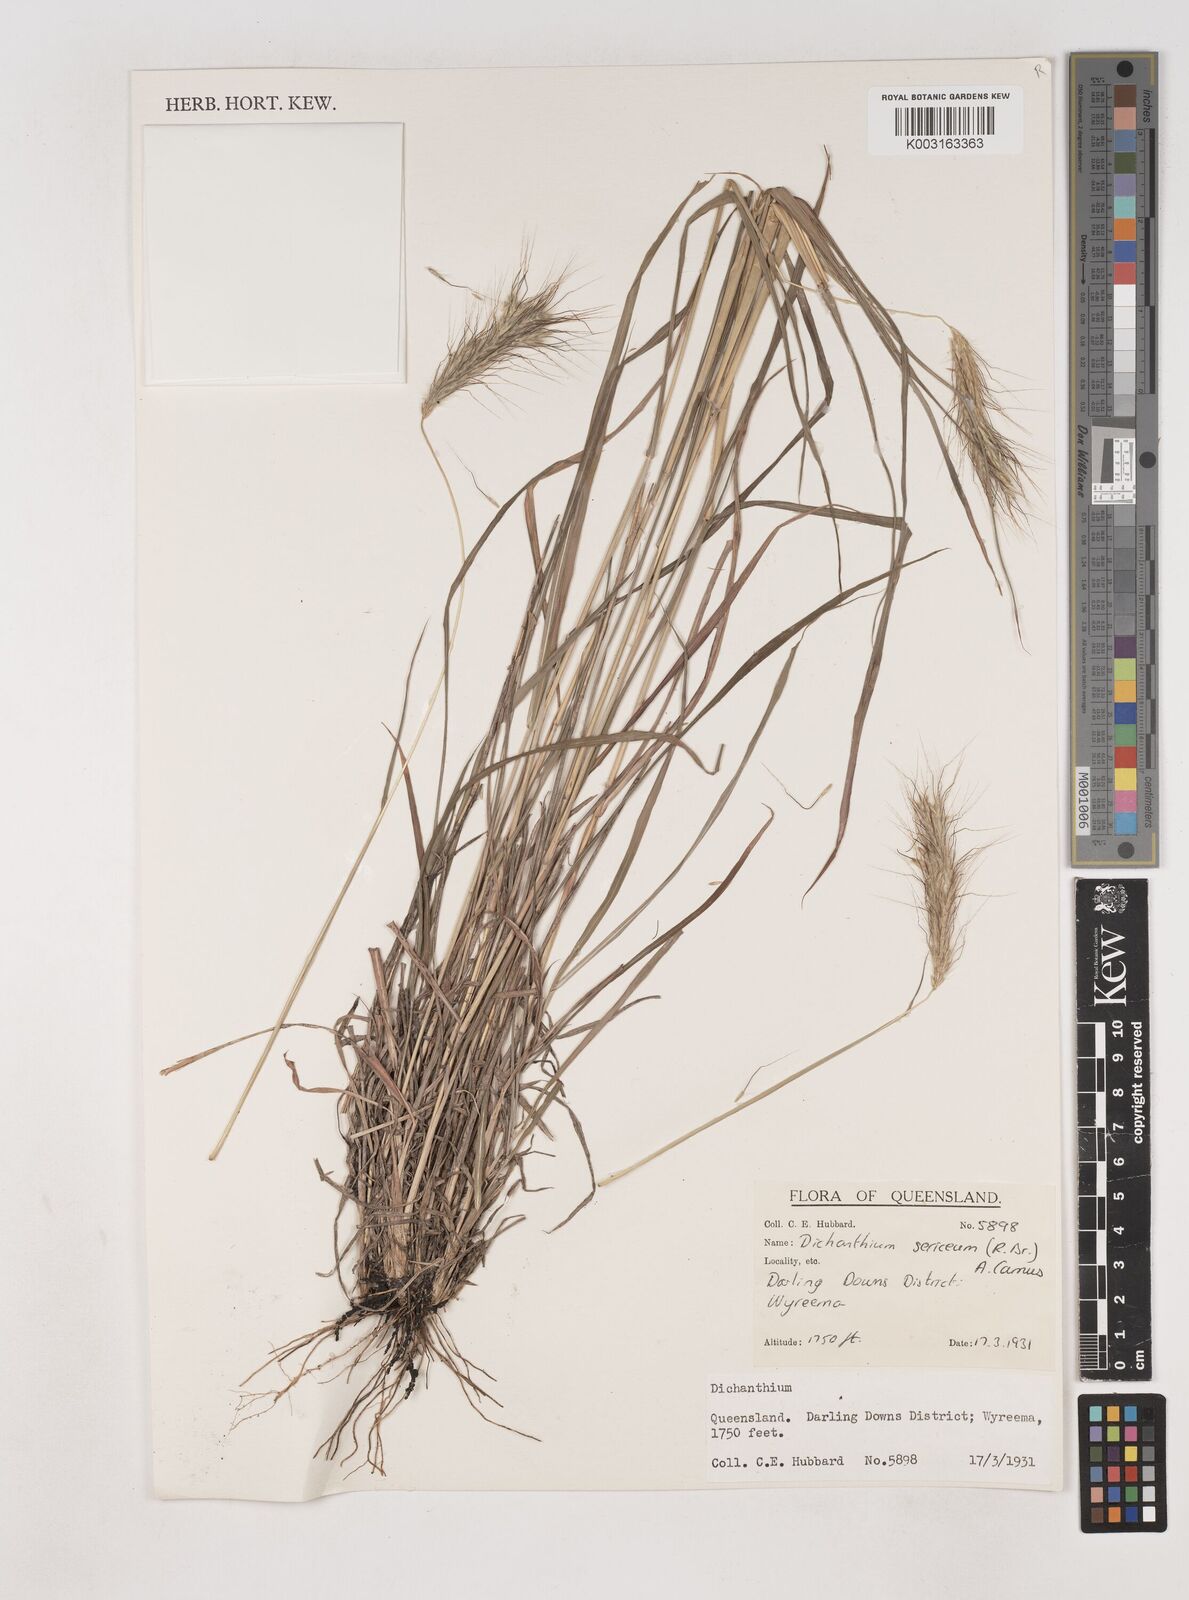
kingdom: Plantae
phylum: Tracheophyta
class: Liliopsida
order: Poales
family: Poaceae
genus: Dichanthium
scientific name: Dichanthium sericeum
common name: Silky bluestem
